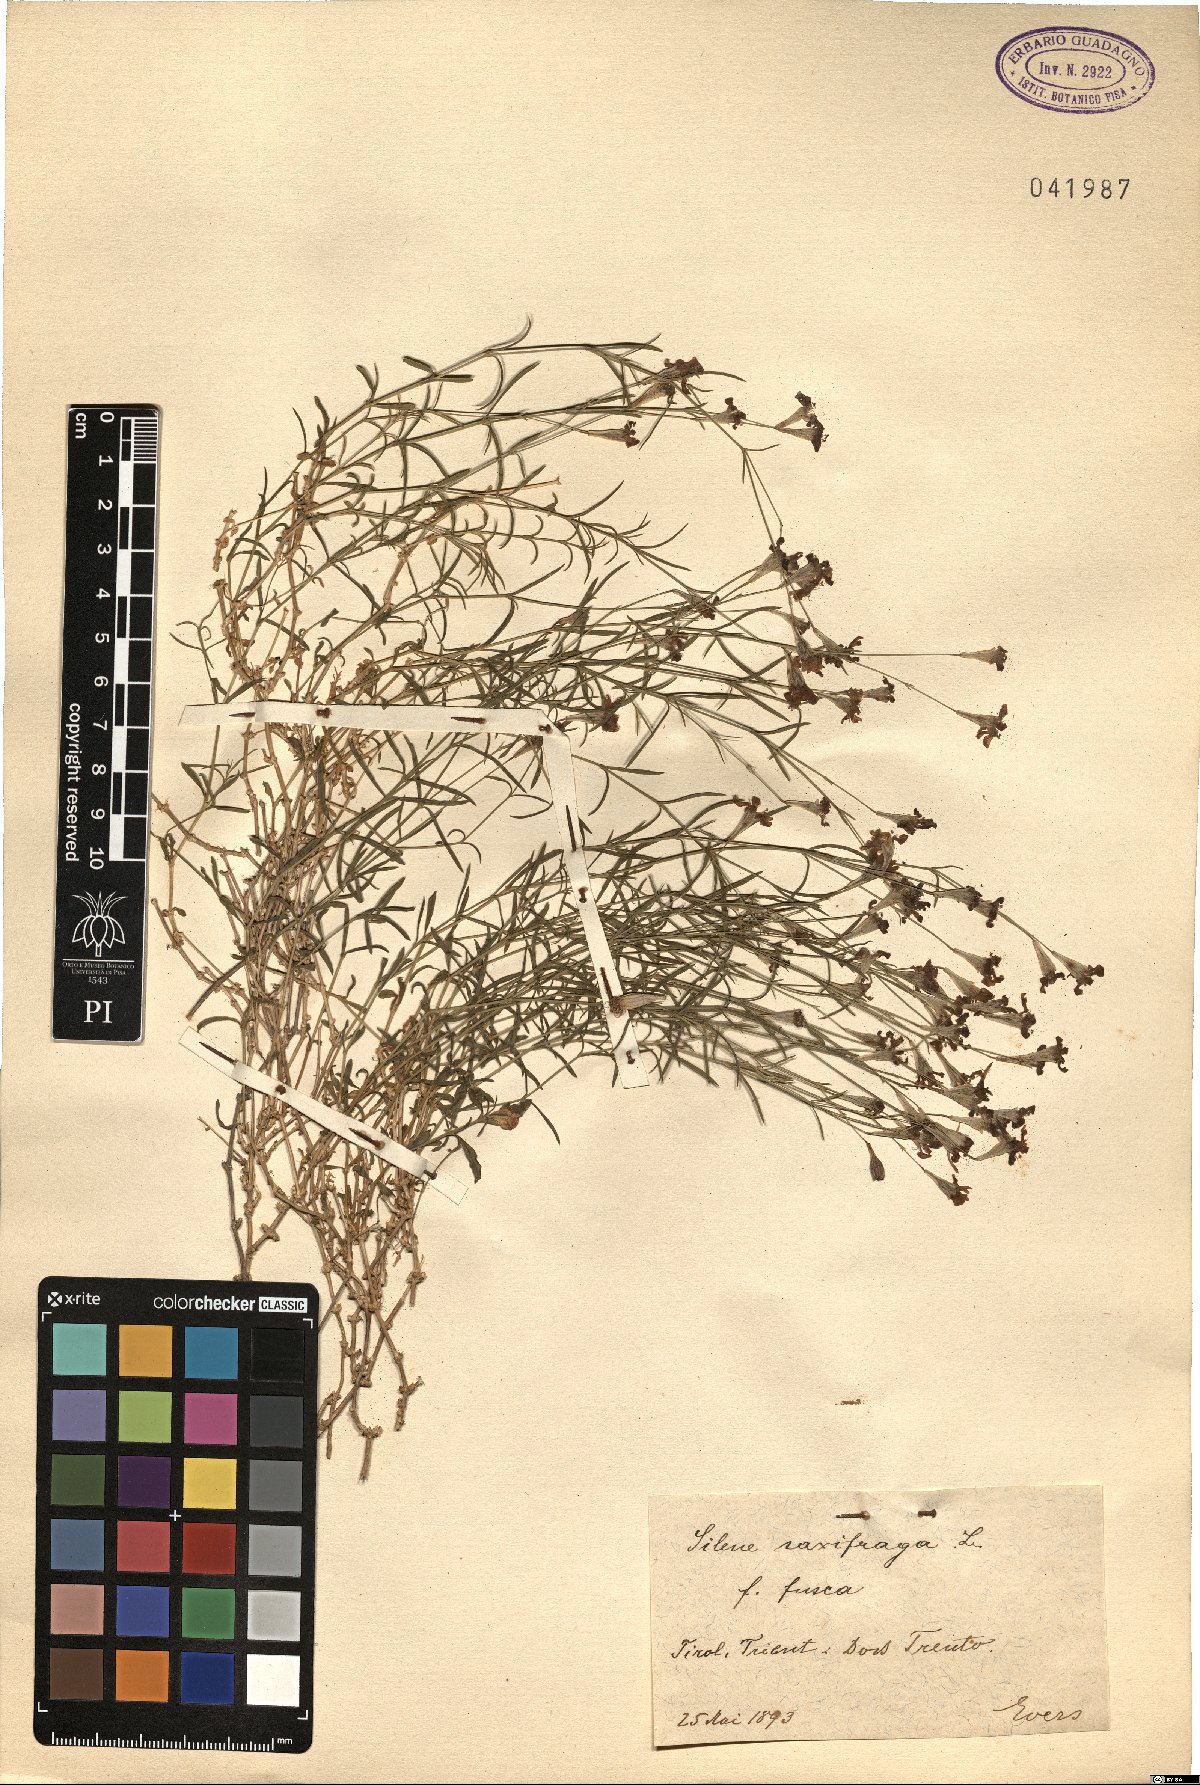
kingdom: Plantae
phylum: Tracheophyta
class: Magnoliopsida
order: Caryophyllales
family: Caryophyllaceae
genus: Silene
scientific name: Silene saxifraga
